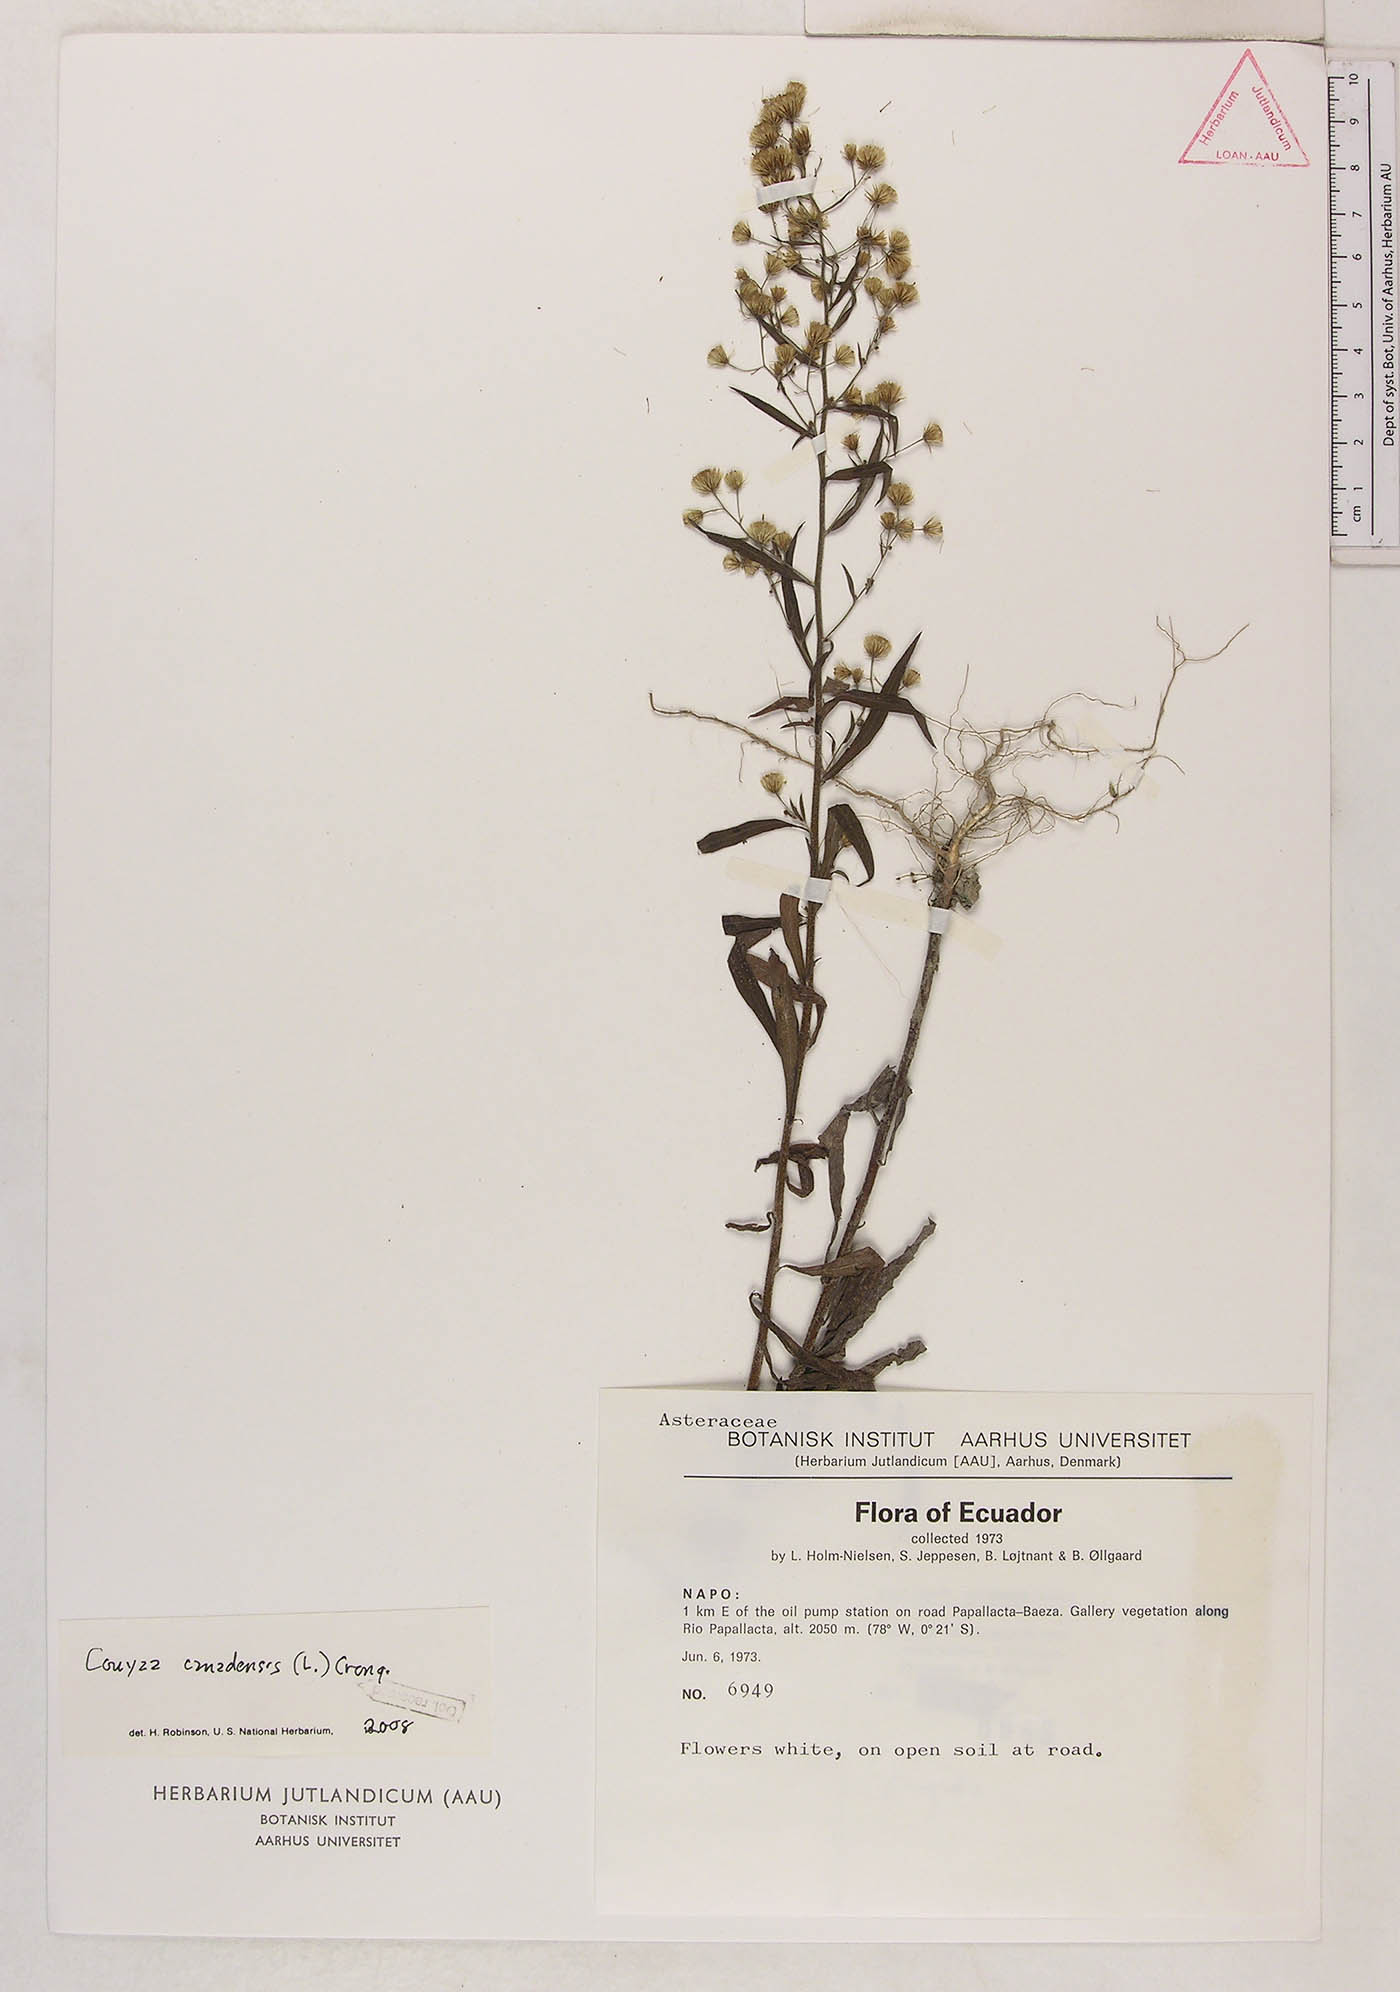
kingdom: Plantae
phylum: Tracheophyta
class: Magnoliopsida
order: Asterales
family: Asteraceae
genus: Erigeron
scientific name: Erigeron canadensis
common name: Canadian fleabane
